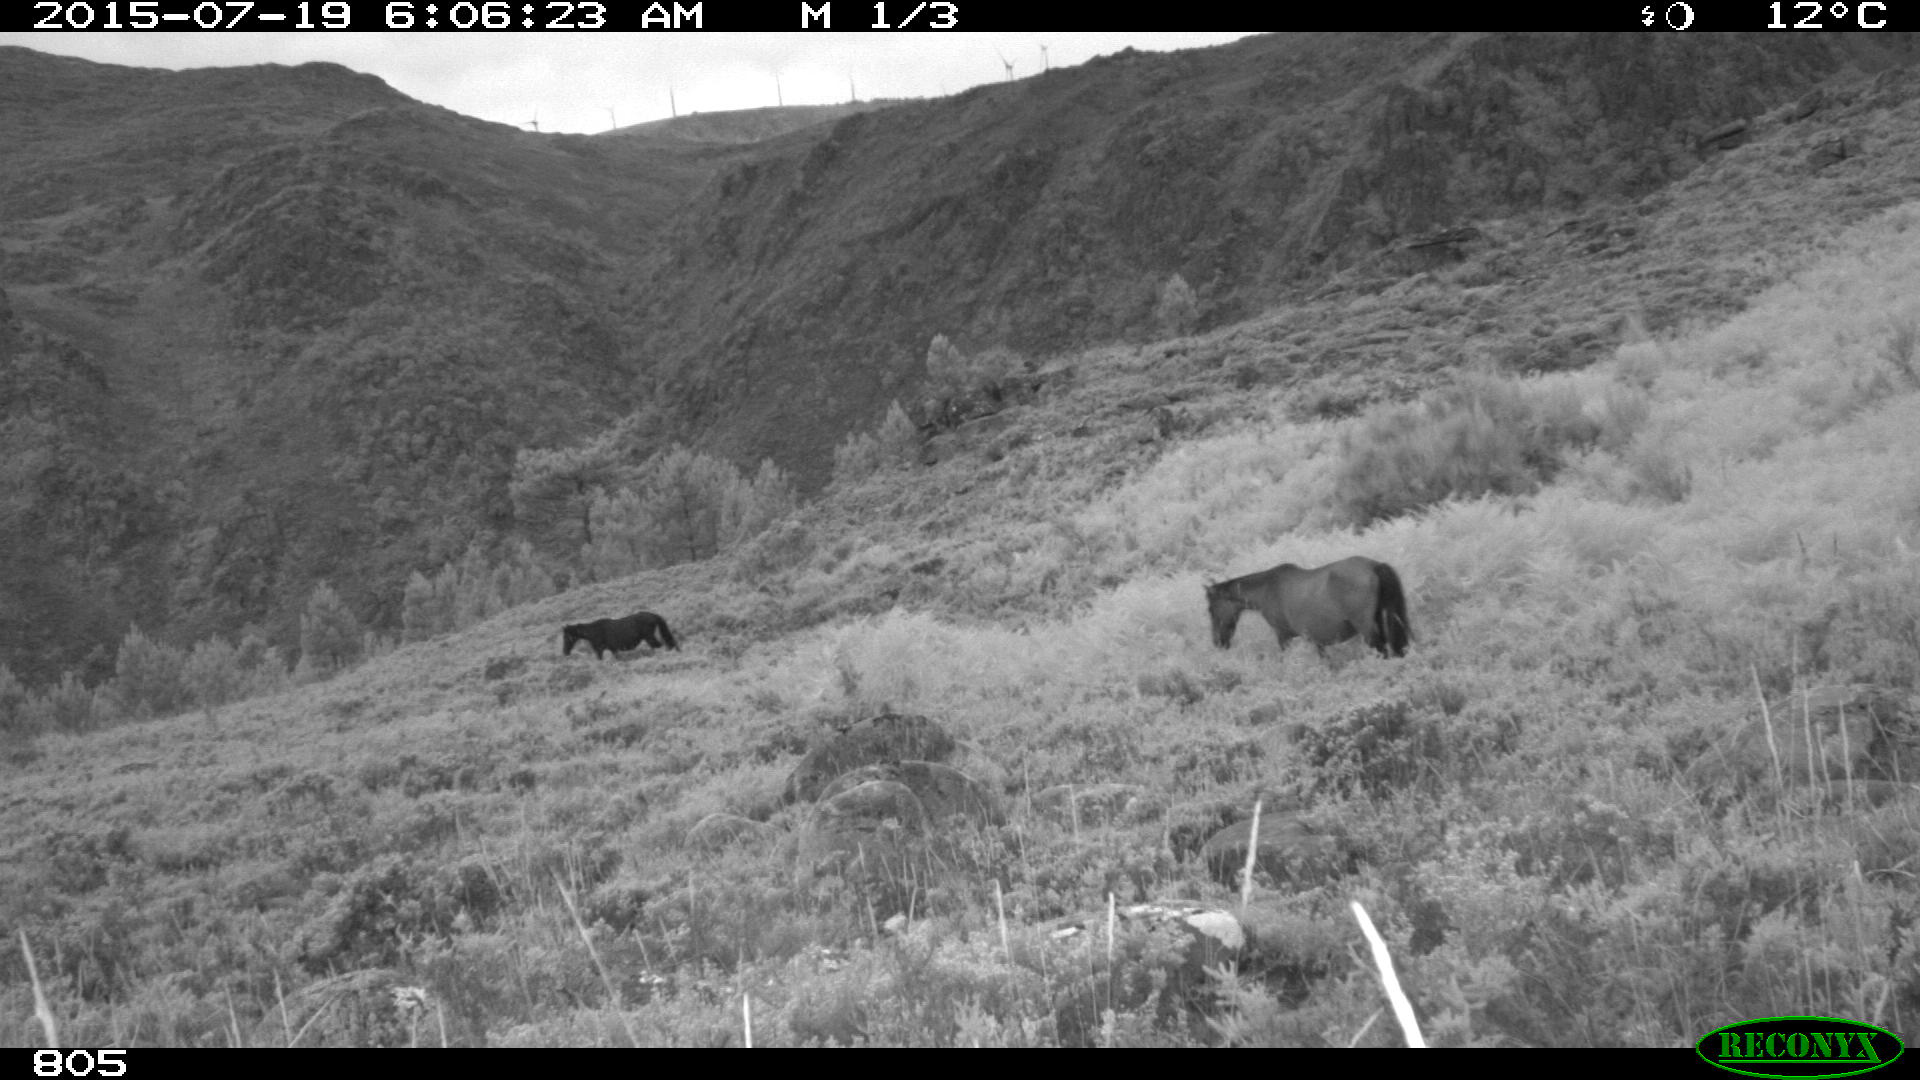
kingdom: Animalia
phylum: Chordata
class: Mammalia
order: Perissodactyla
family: Equidae
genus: Equus
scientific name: Equus caballus
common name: Horse
